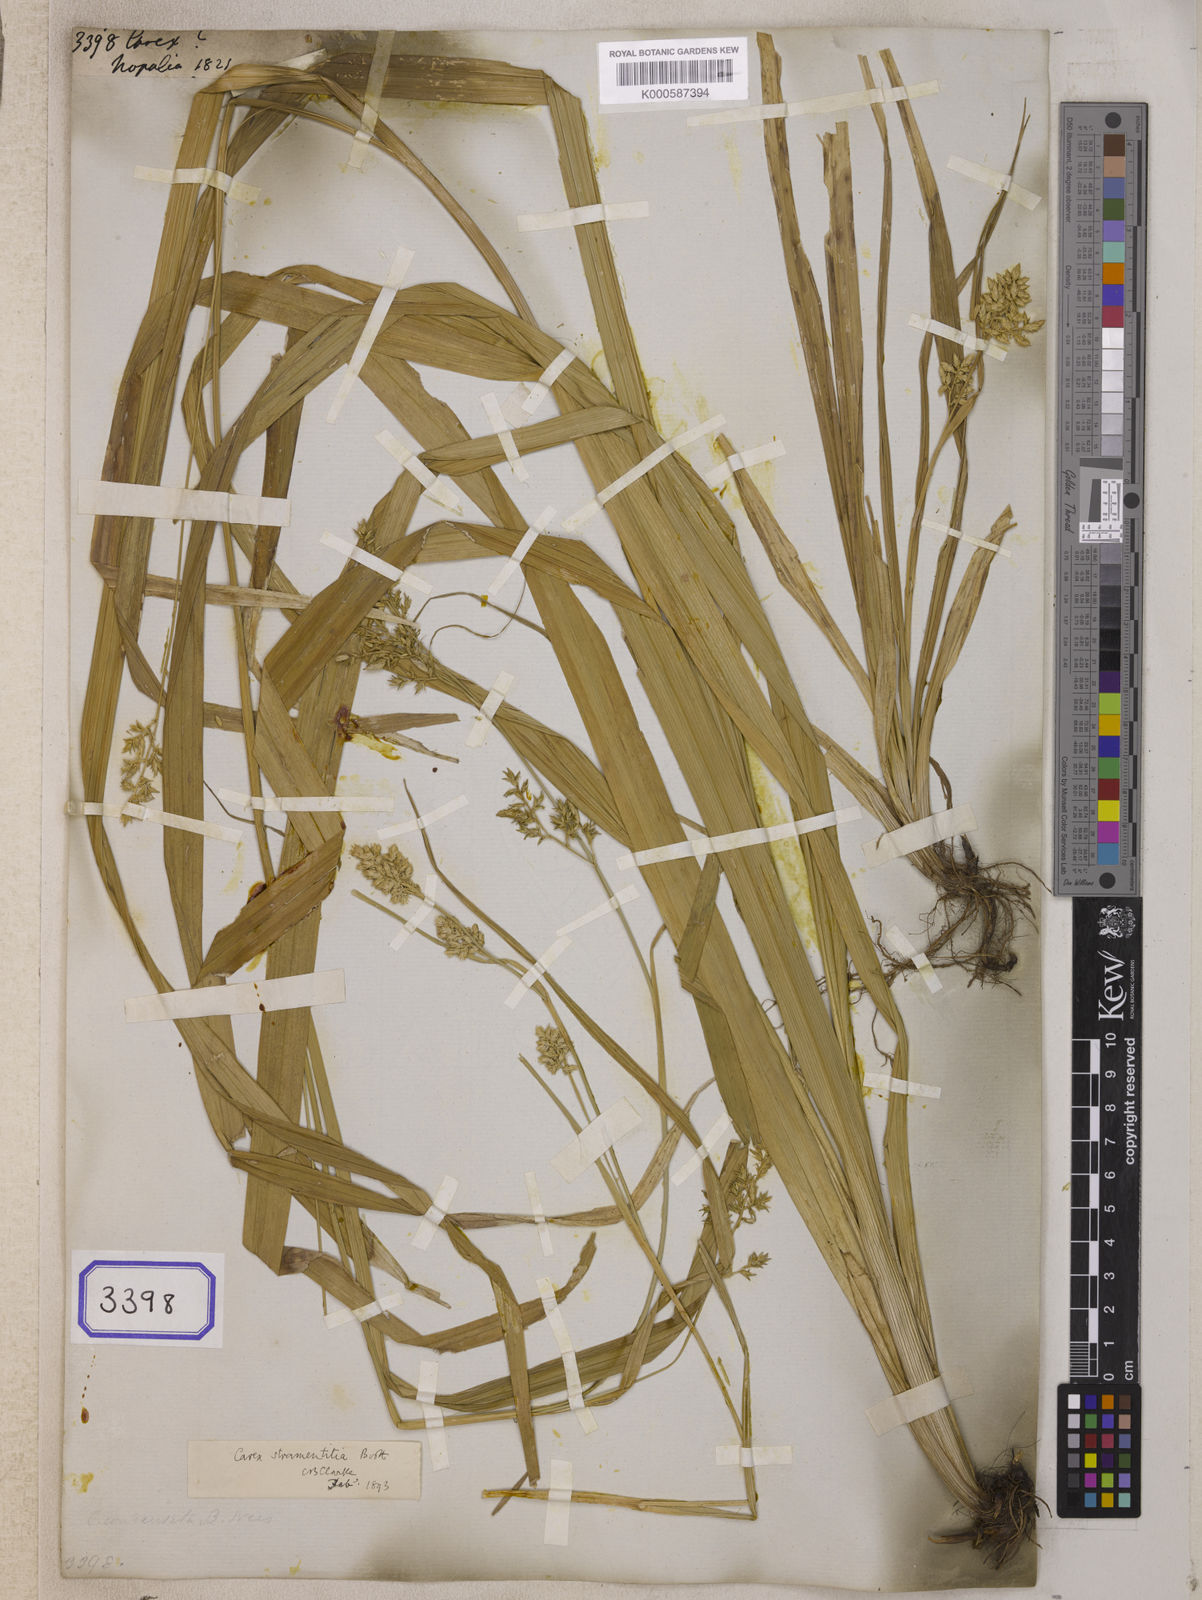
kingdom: Plantae
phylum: Tracheophyta
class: Liliopsida
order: Poales
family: Cyperaceae
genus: Carex
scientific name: Carex
